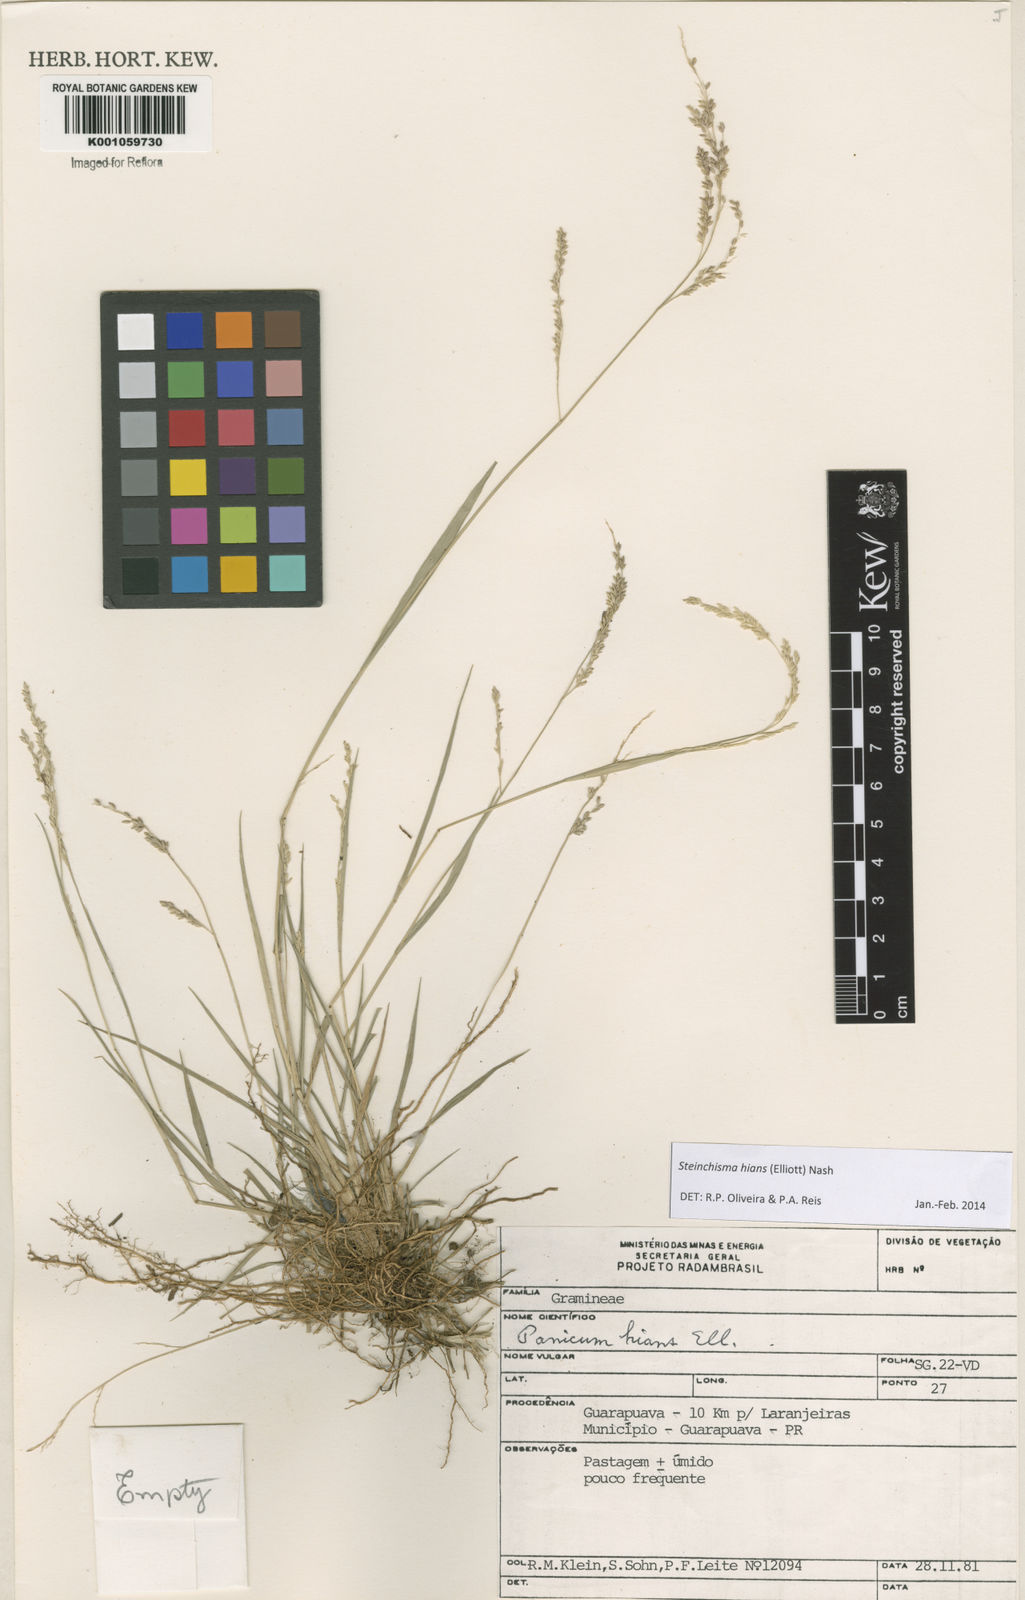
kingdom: Plantae
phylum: Tracheophyta
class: Liliopsida
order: Poales
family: Poaceae
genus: Steinchisma
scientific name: Steinchisma hians
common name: Gaping panic grass
